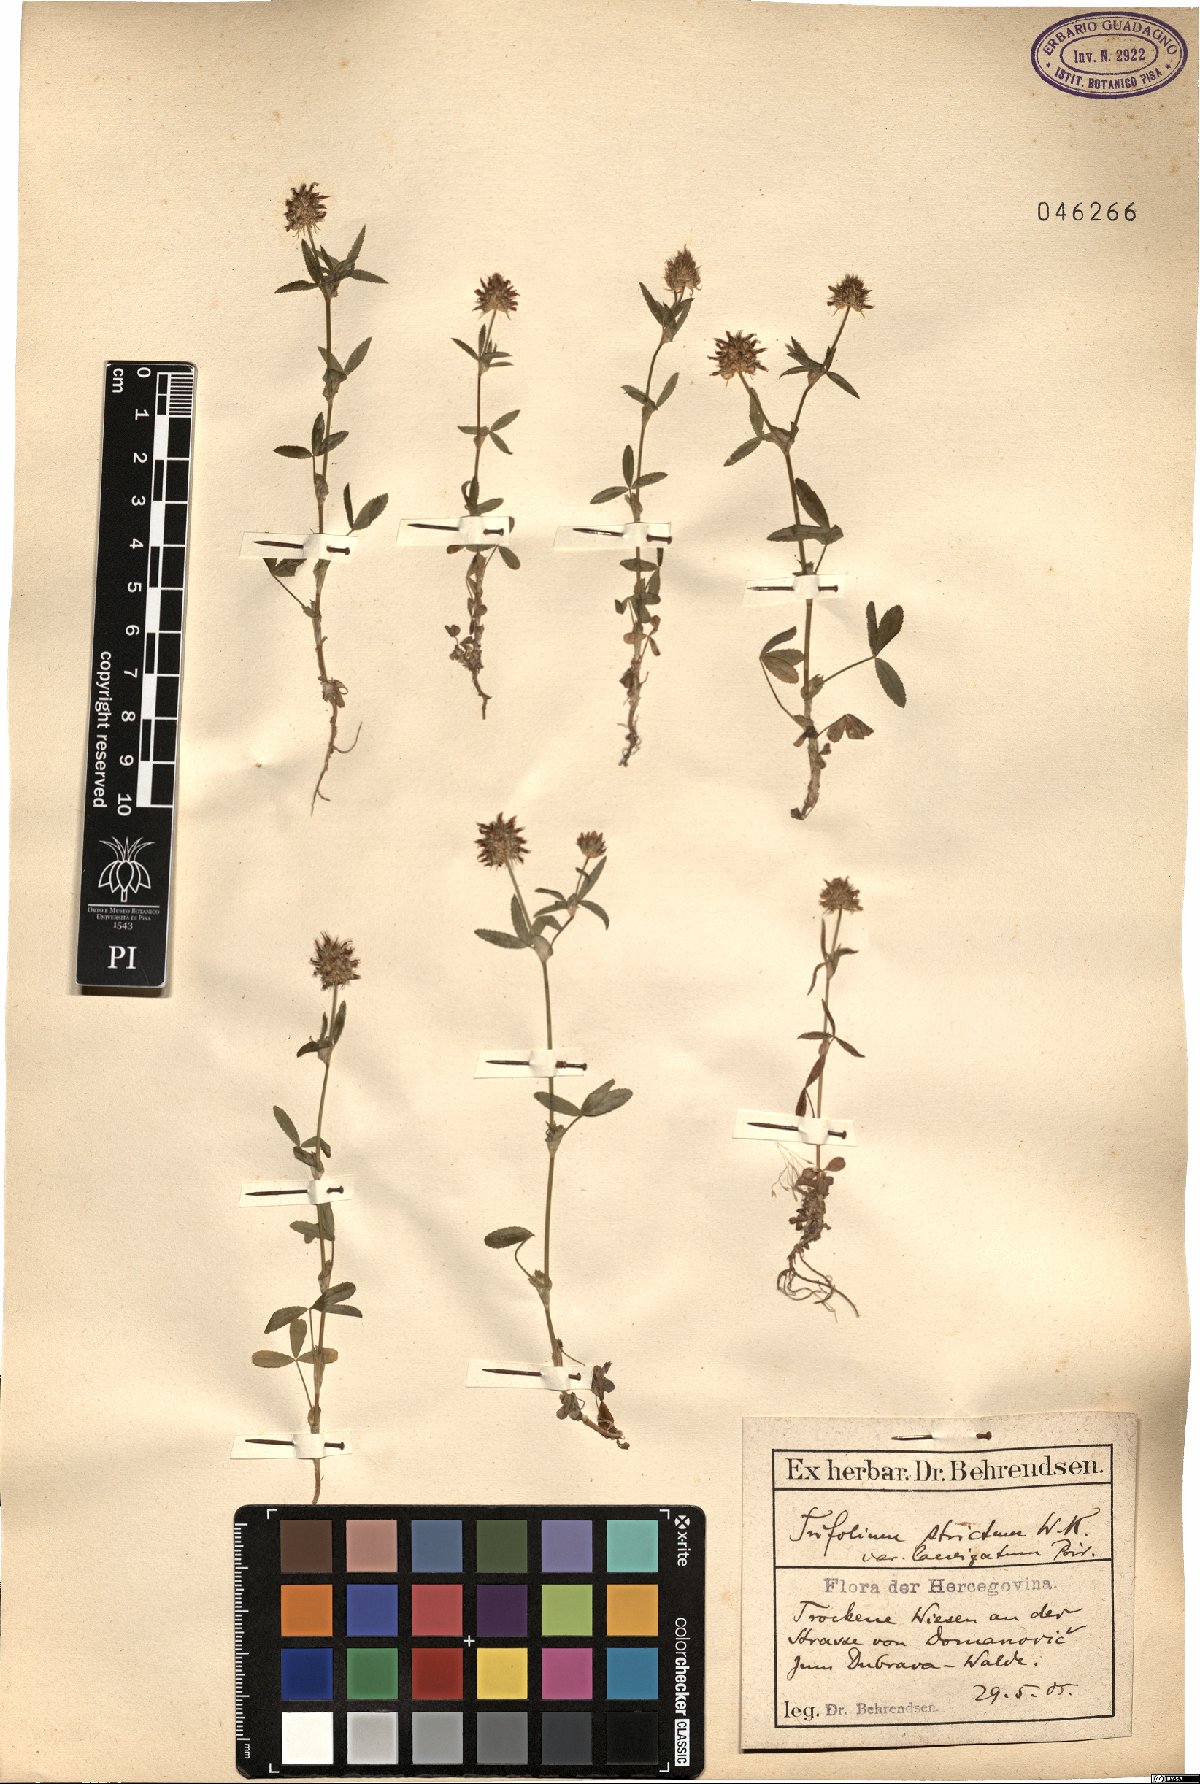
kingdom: Plantae
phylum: Tracheophyta
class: Magnoliopsida
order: Fabales
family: Fabaceae
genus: Trifolium
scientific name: Trifolium strictum
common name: Upright clover
